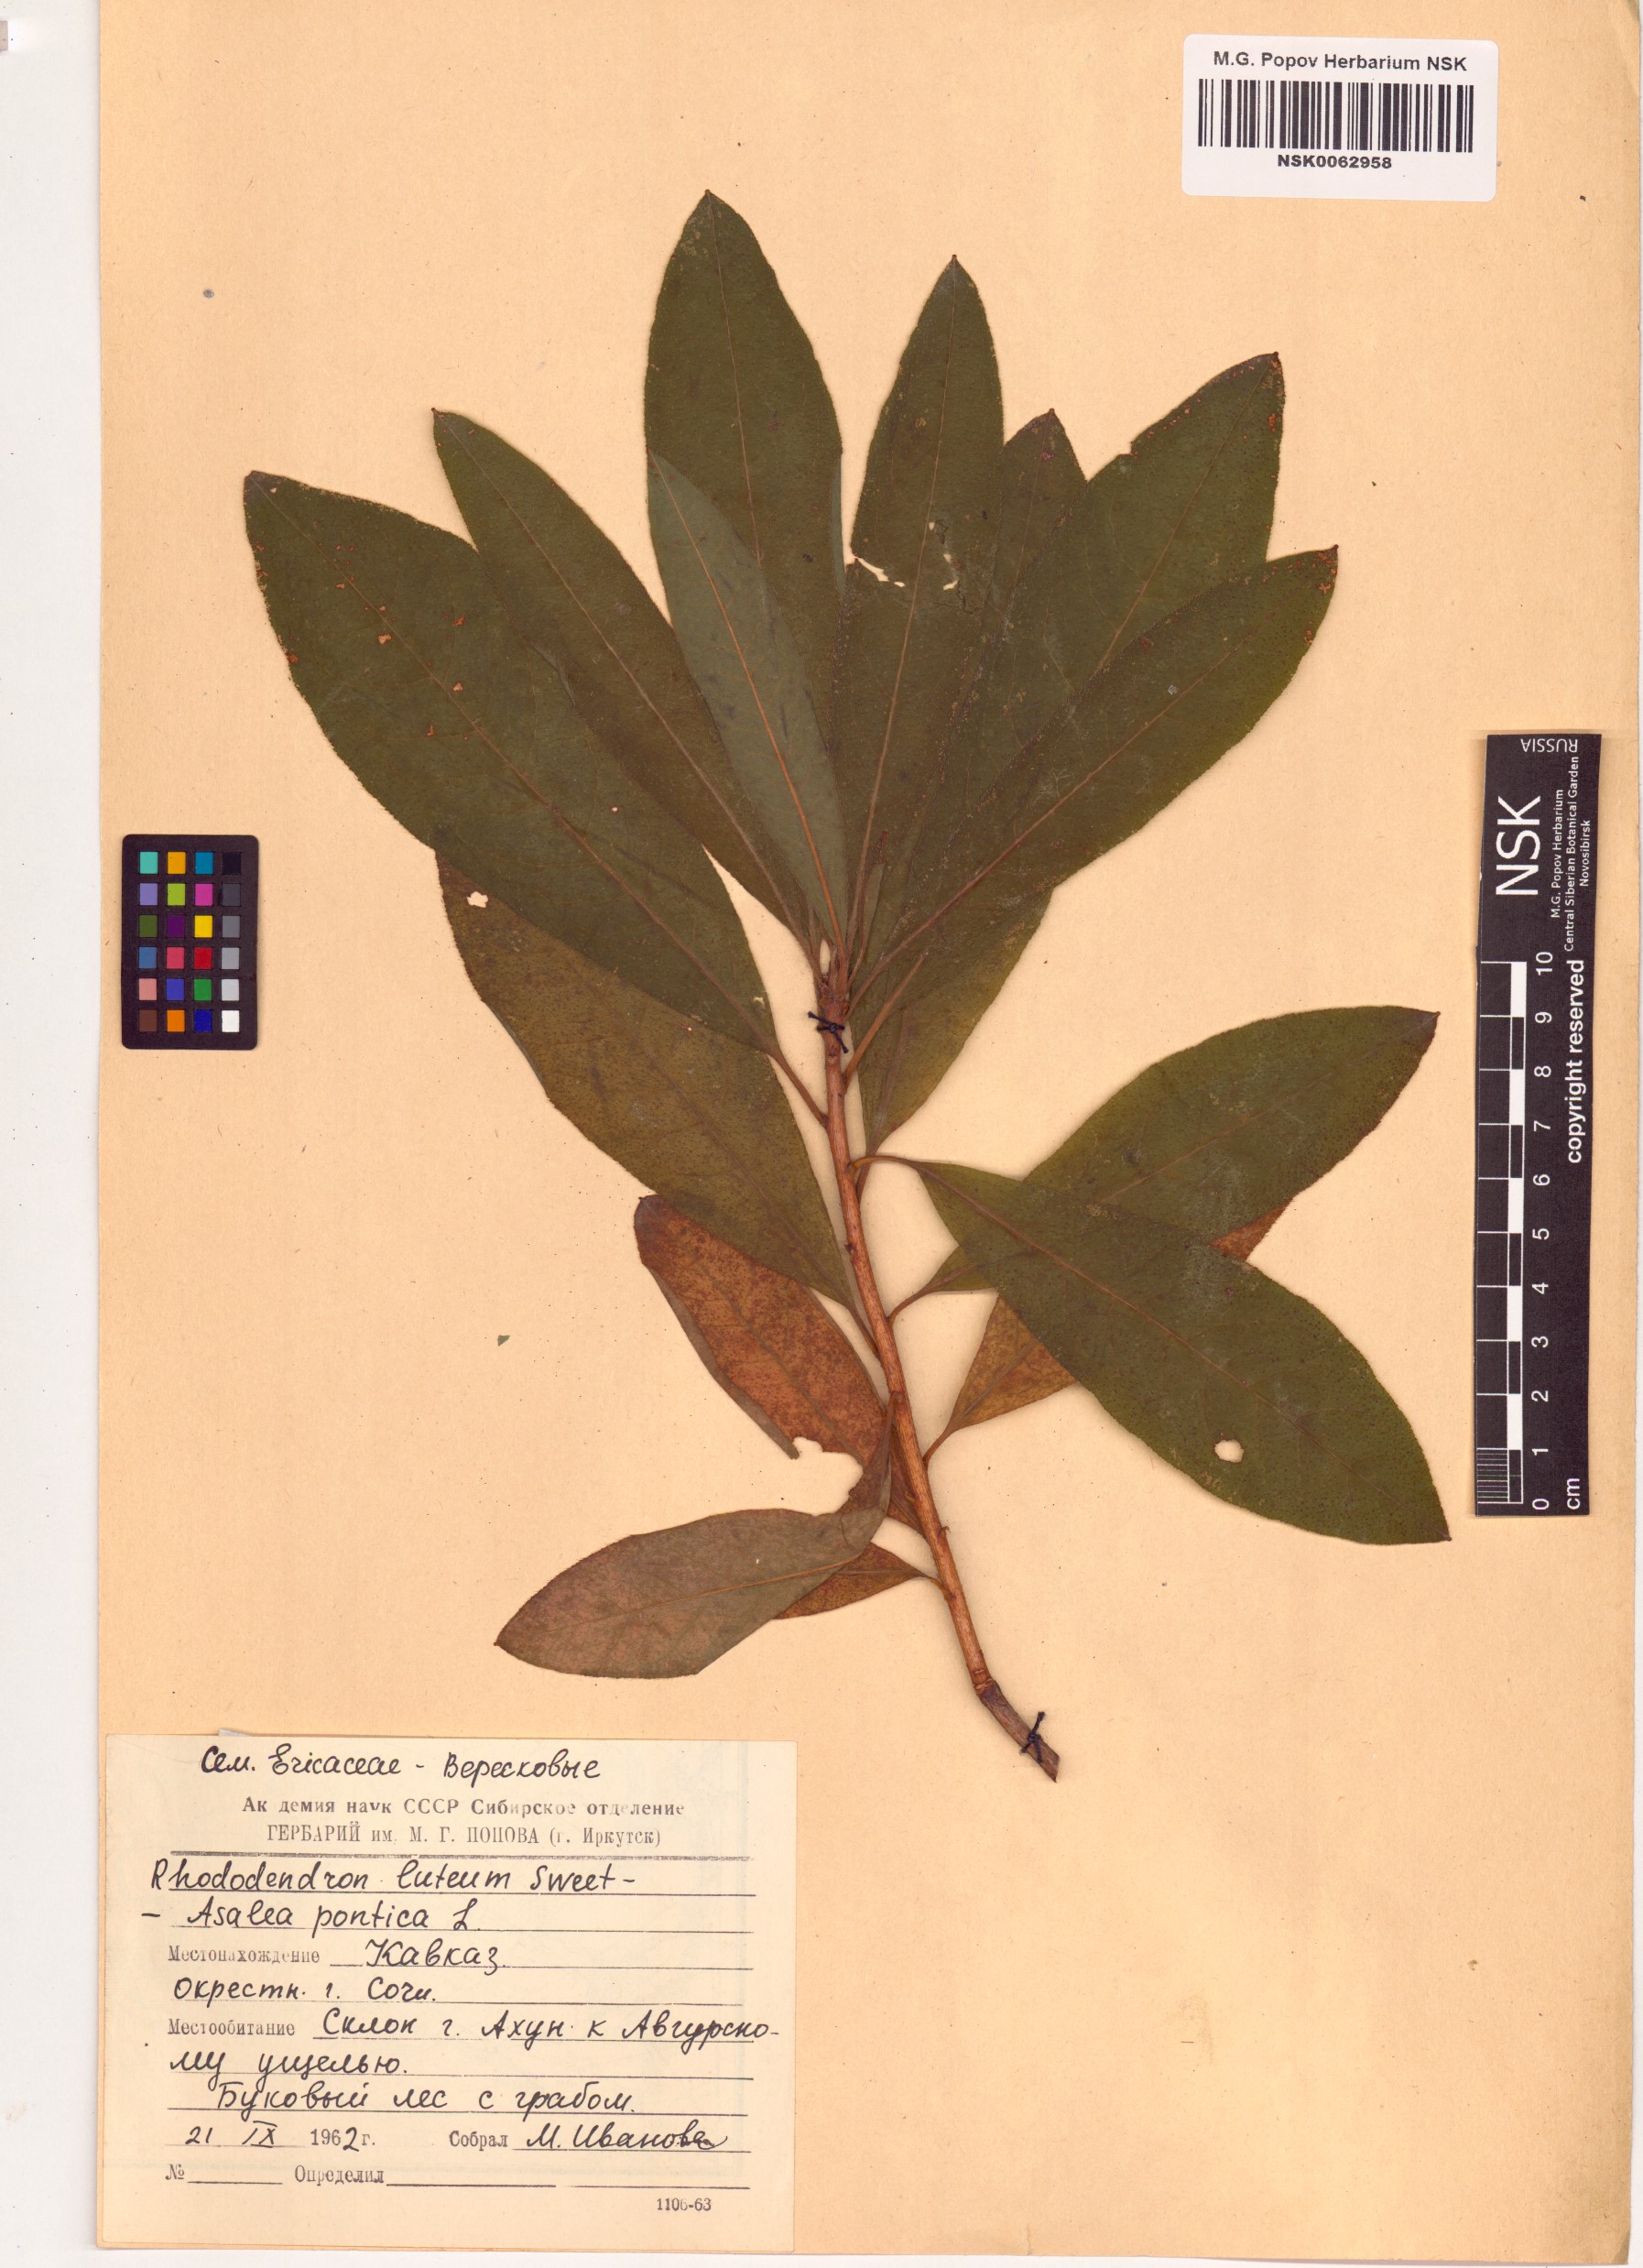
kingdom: Plantae
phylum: Tracheophyta
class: Magnoliopsida
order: Ericales
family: Ericaceae
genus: Rhododendron
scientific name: Rhododendron luteum
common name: Yellow azalea
